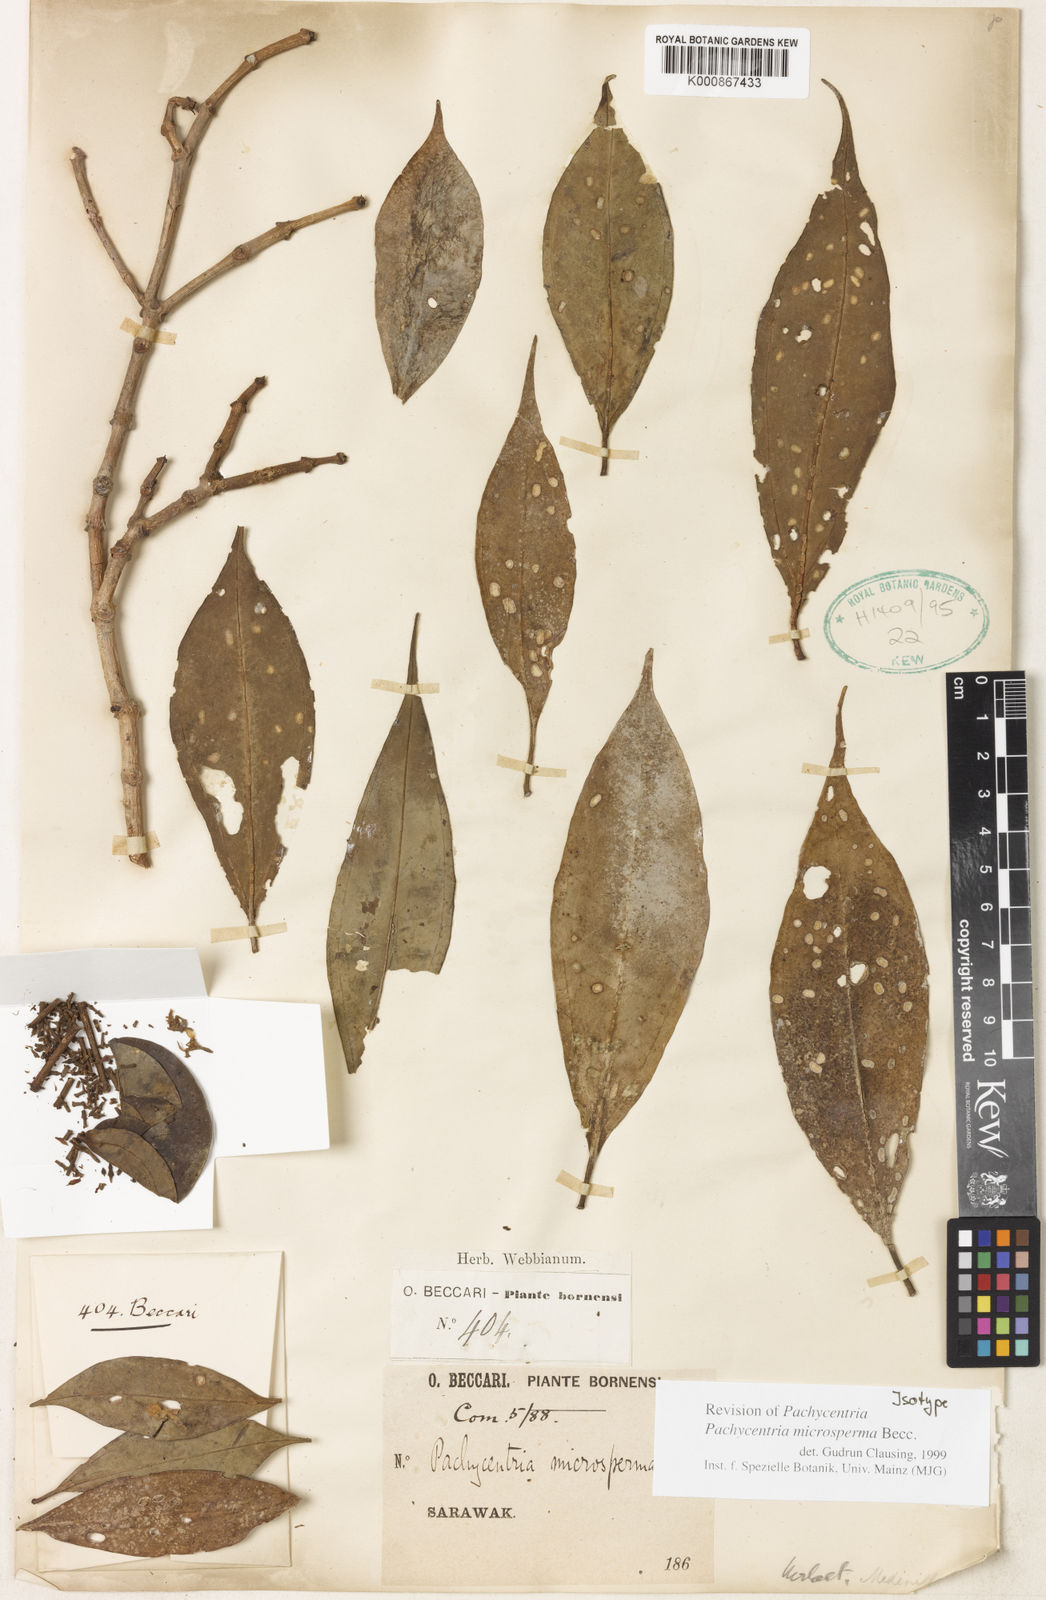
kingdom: Plantae
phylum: Tracheophyta
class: Magnoliopsida
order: Myrtales
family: Melastomataceae
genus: Pachycentria
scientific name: Pachycentria microsperma
